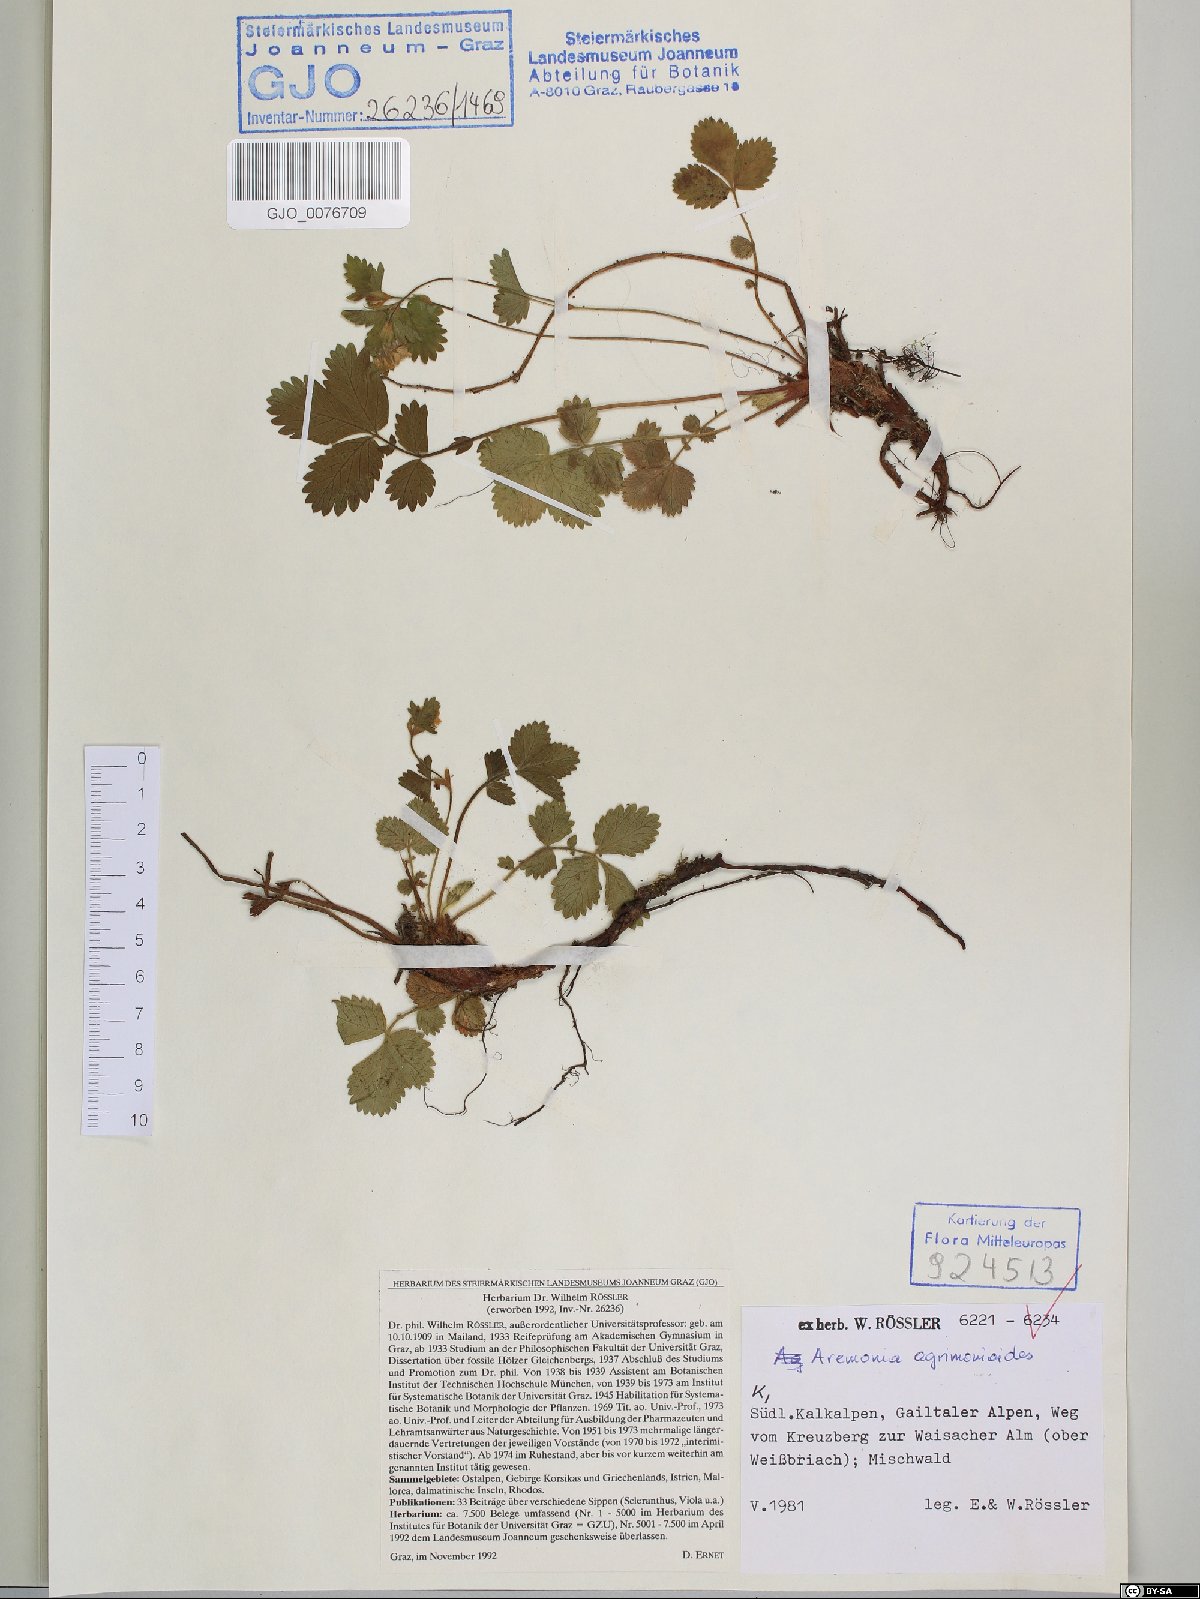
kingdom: Plantae
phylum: Tracheophyta
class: Magnoliopsida
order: Rosales
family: Rosaceae
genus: Aremonia
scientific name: Aremonia agrimonoides
